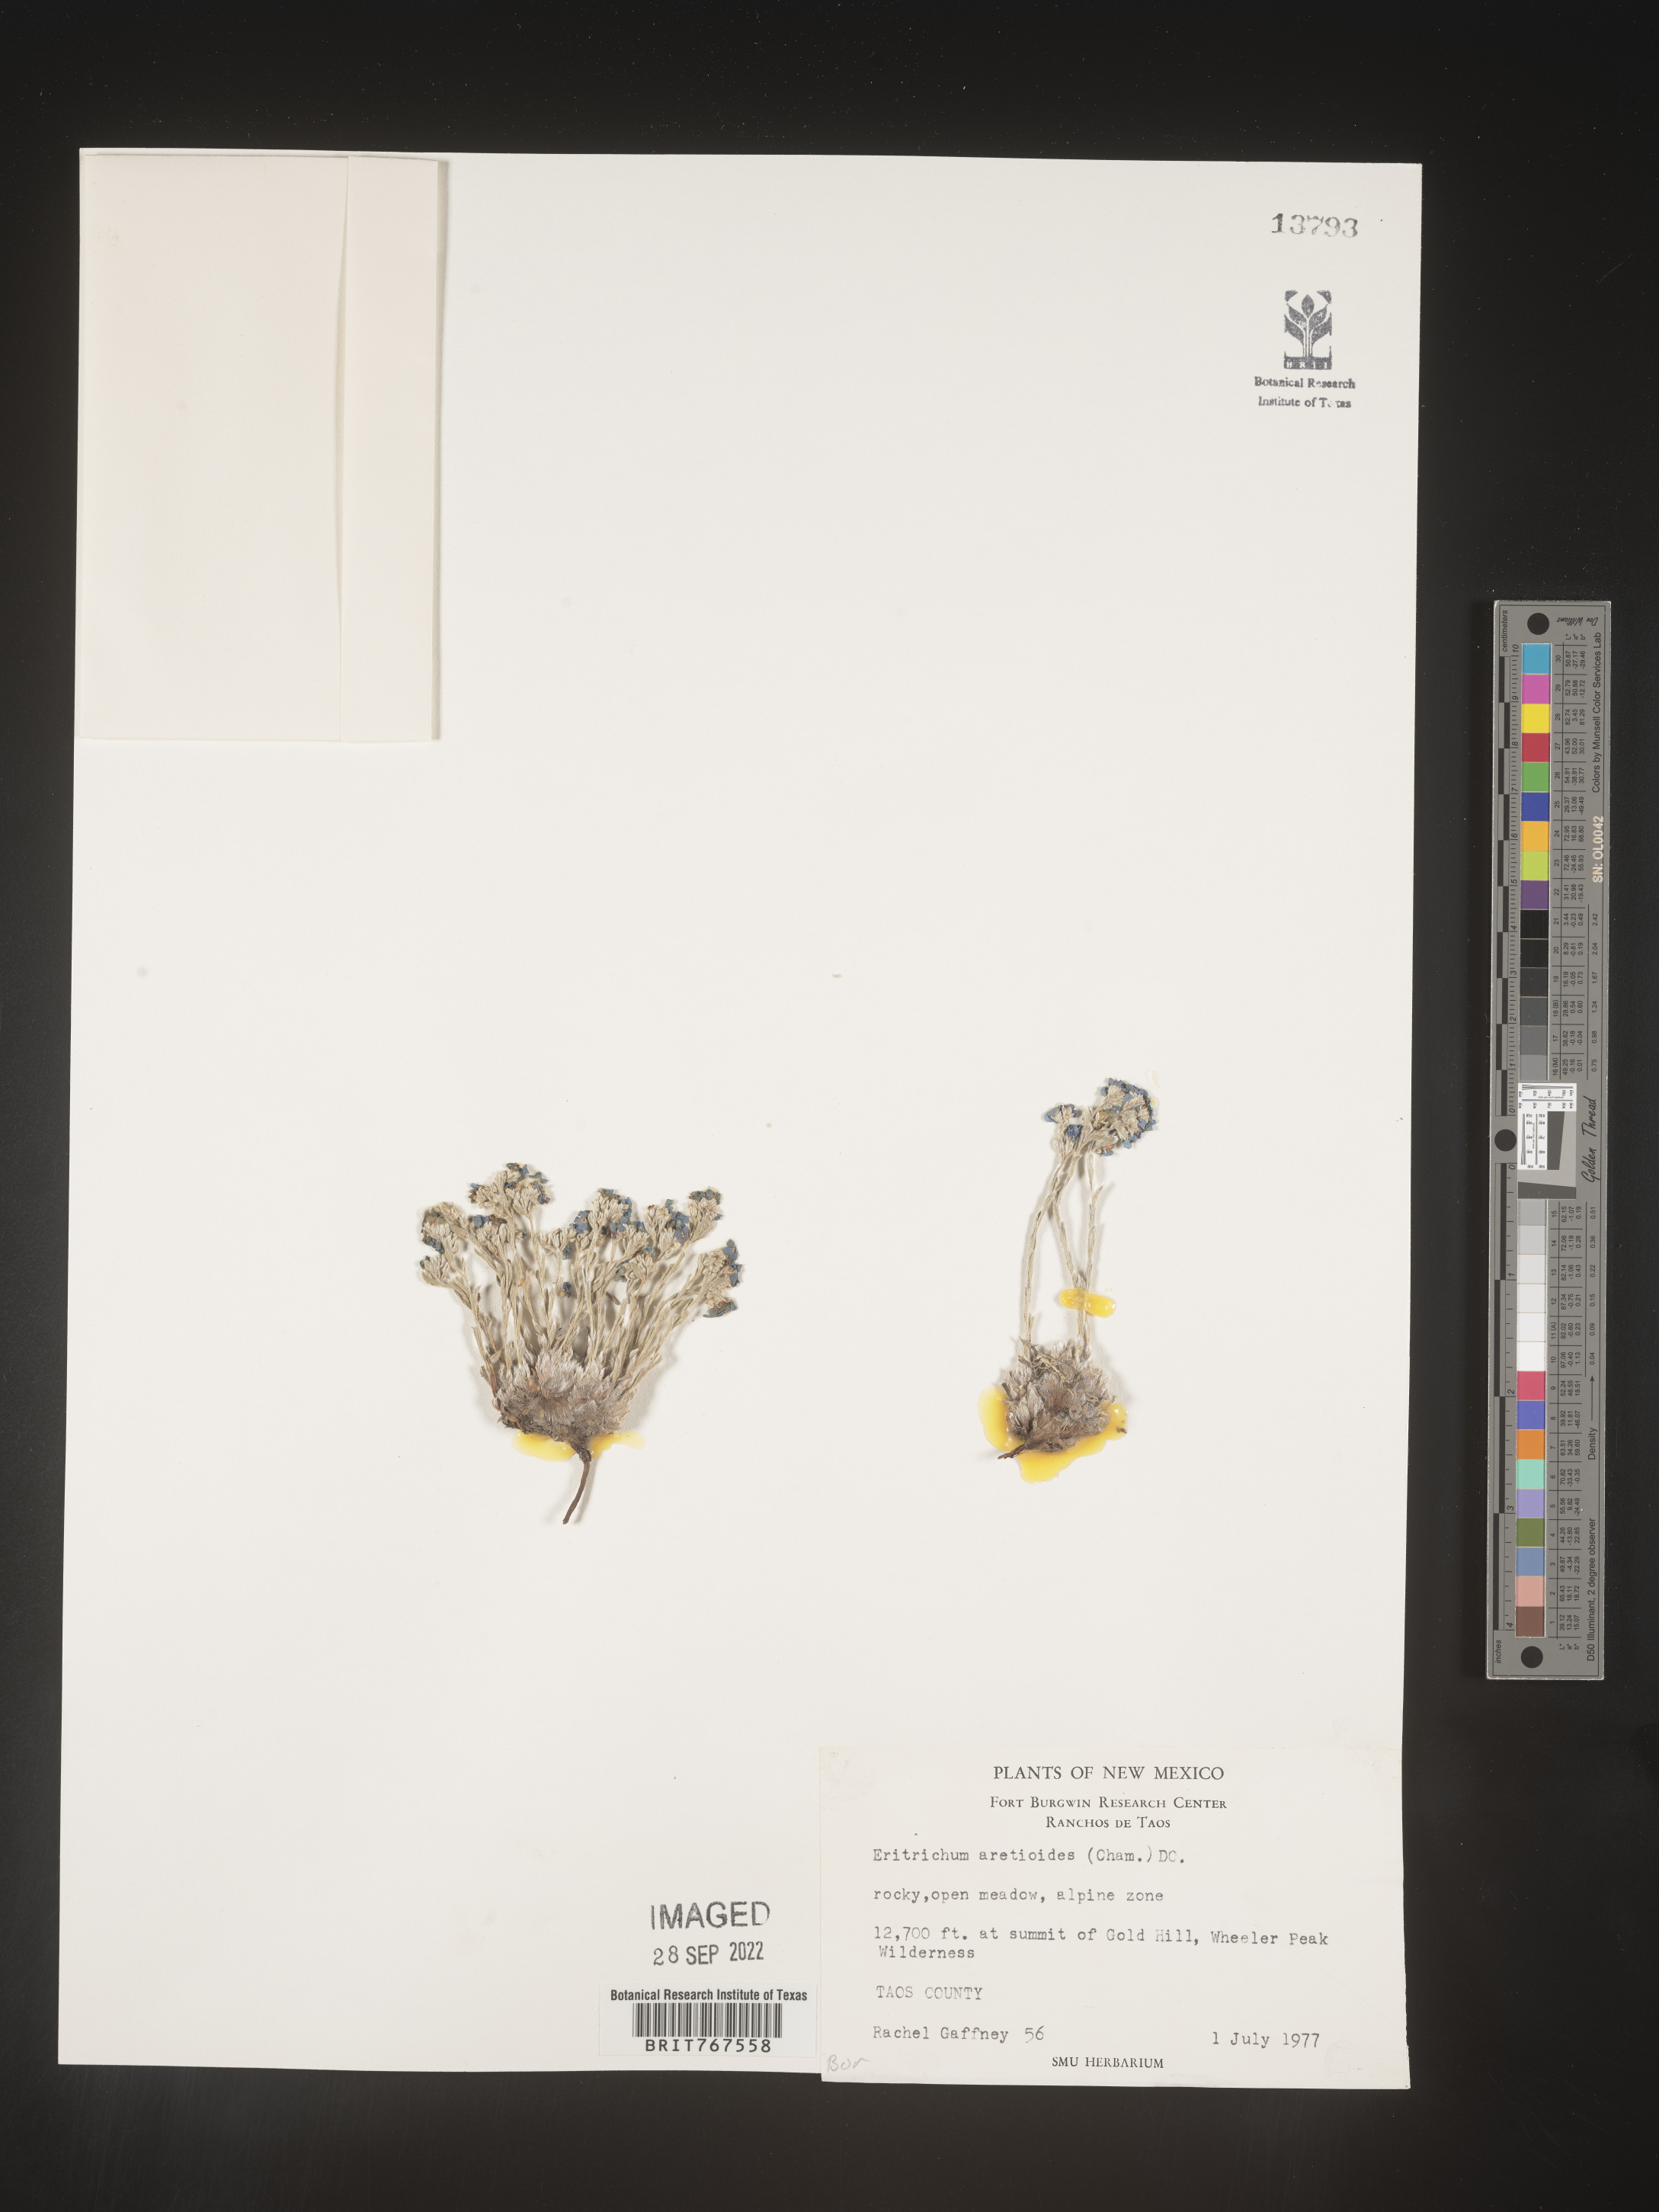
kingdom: Plantae
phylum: Tracheophyta
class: Magnoliopsida
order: Boraginales
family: Boraginaceae
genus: Eritrichium
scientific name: Eritrichium
